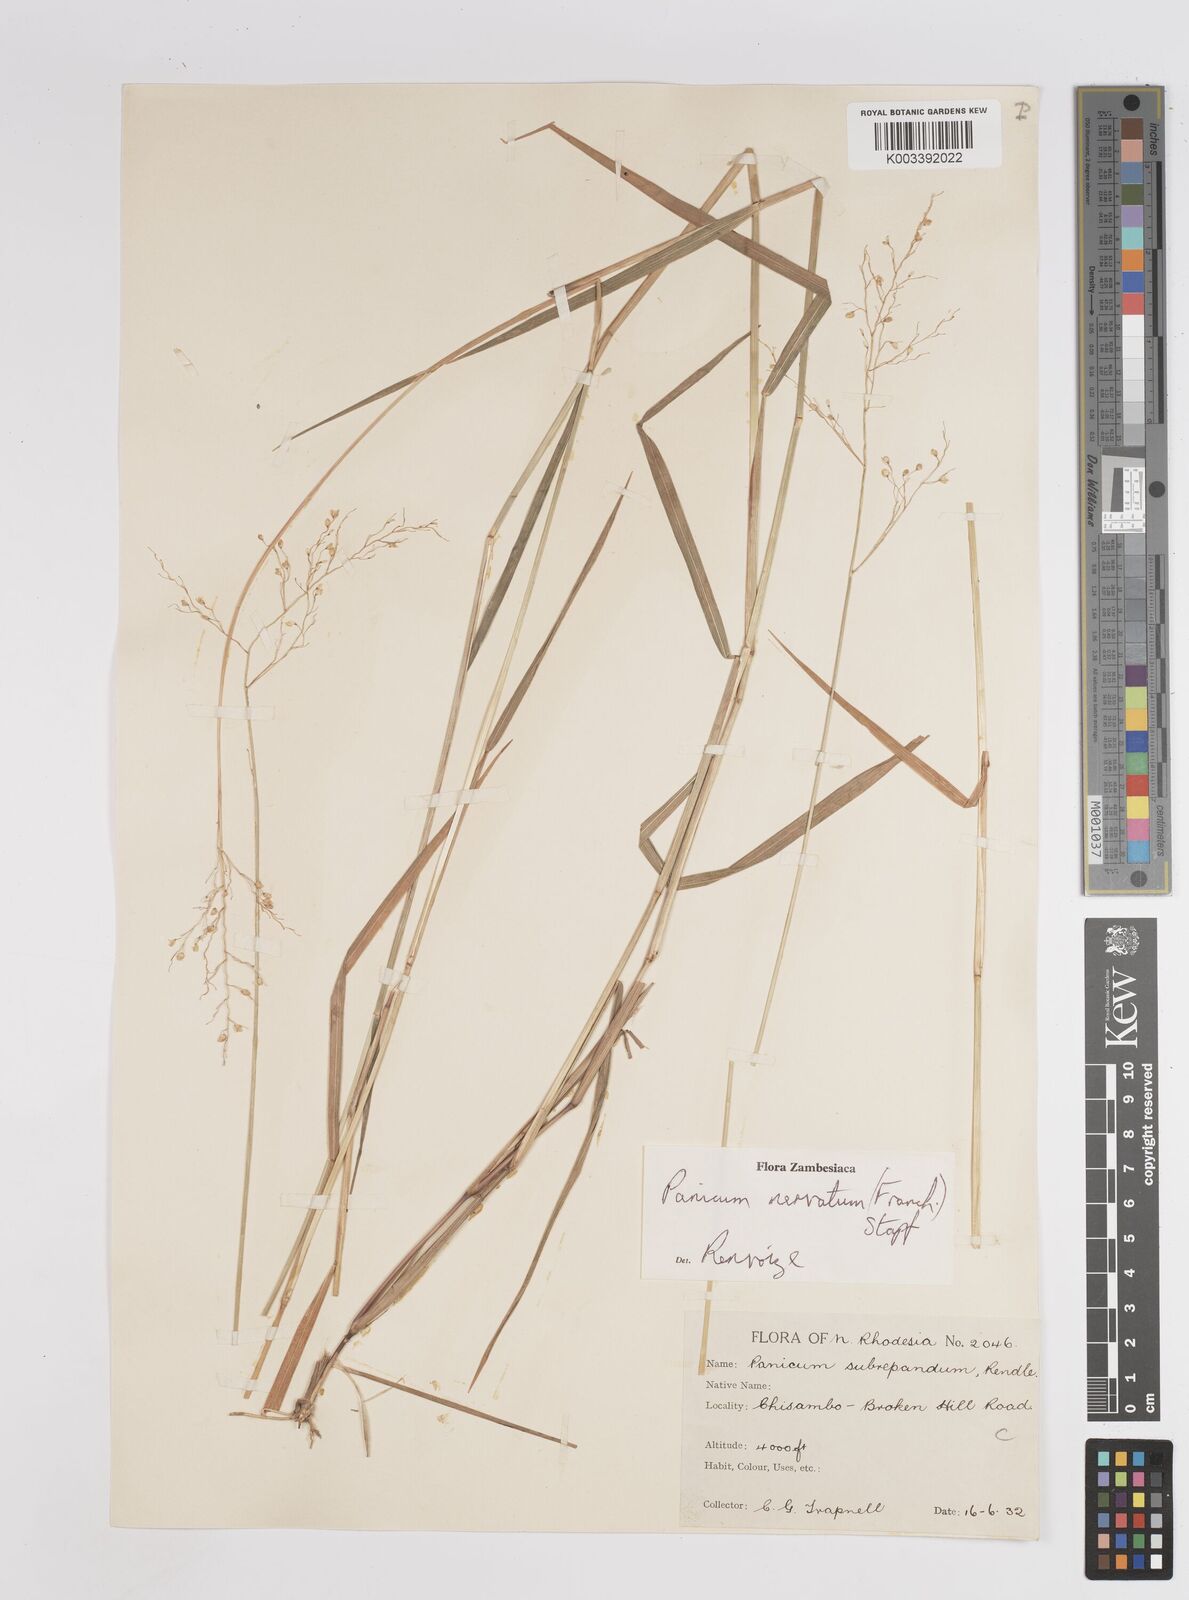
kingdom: Plantae
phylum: Tracheophyta
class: Liliopsida
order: Poales
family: Poaceae
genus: Trichanthecium
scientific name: Trichanthecium nervatum
